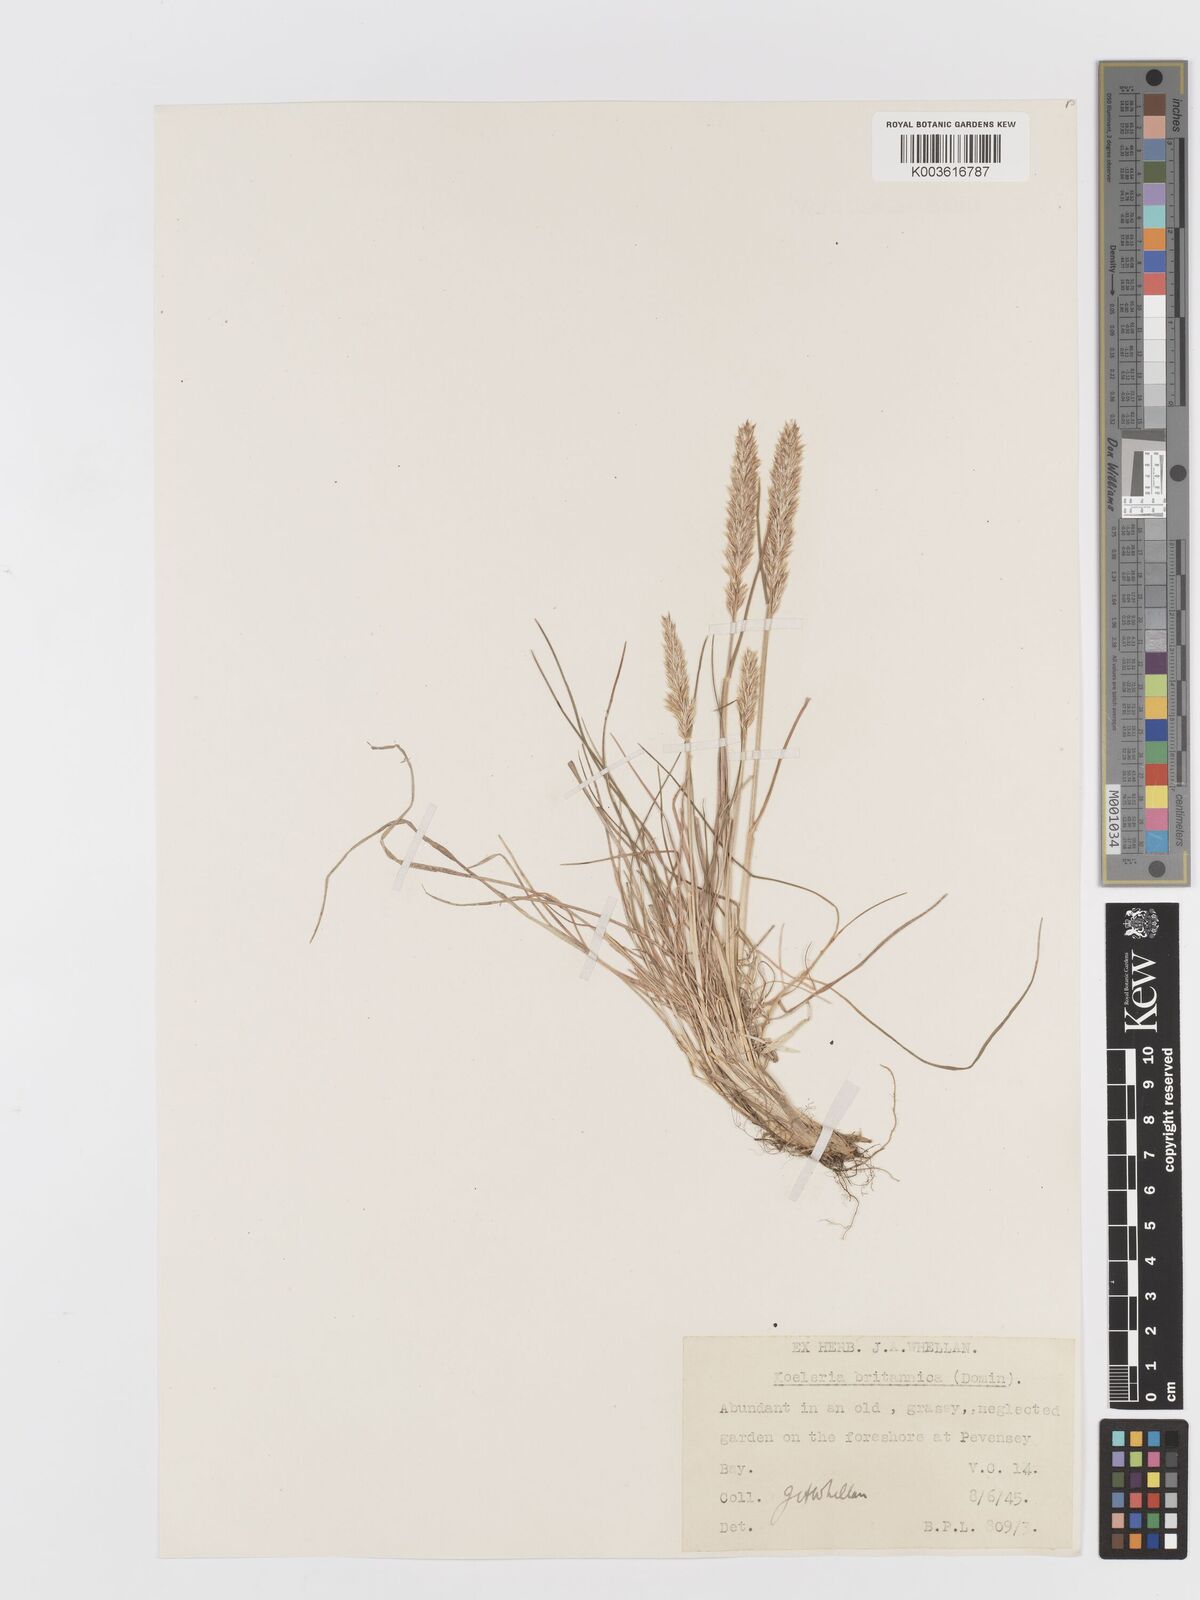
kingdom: Plantae
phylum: Tracheophyta
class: Liliopsida
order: Poales
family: Poaceae
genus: Koeleria
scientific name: Koeleria macrantha
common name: Crested hair-grass
